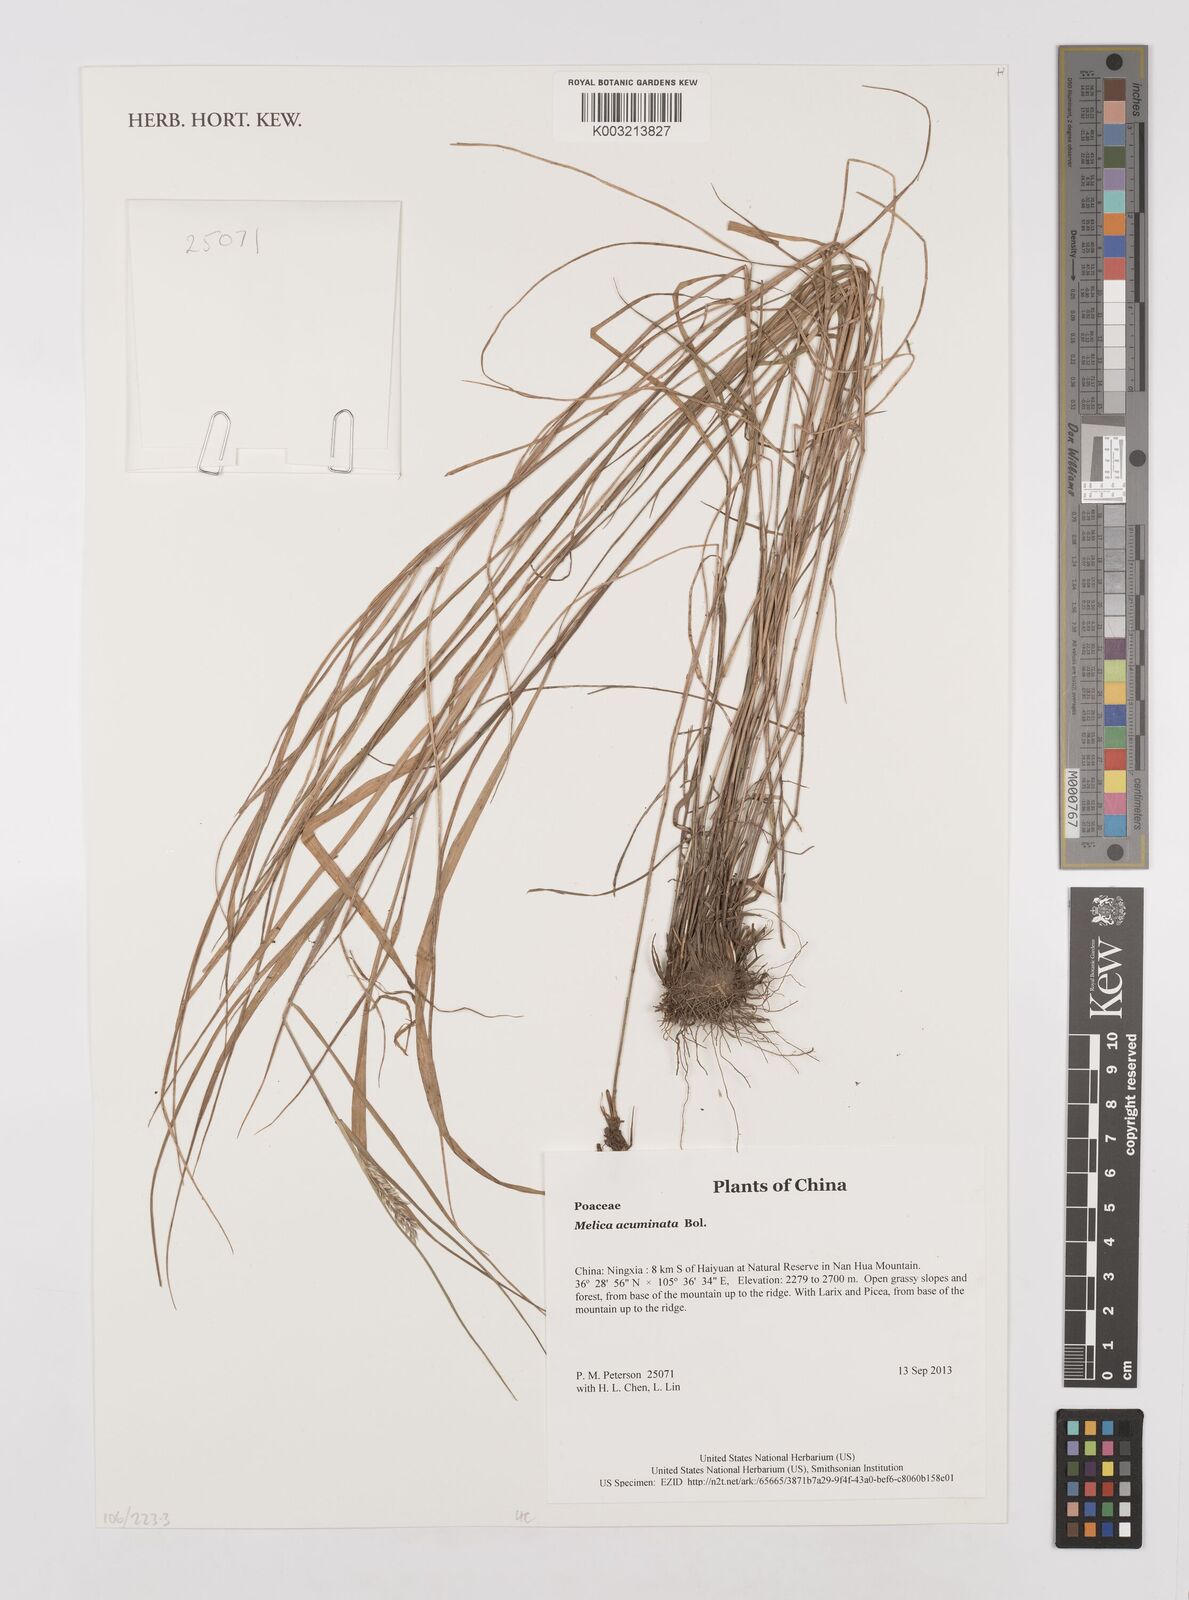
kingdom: Plantae
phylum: Tracheophyta
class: Liliopsida
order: Poales
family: Poaceae
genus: Melica
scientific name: Melica subulata
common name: Tapered oniongrass
